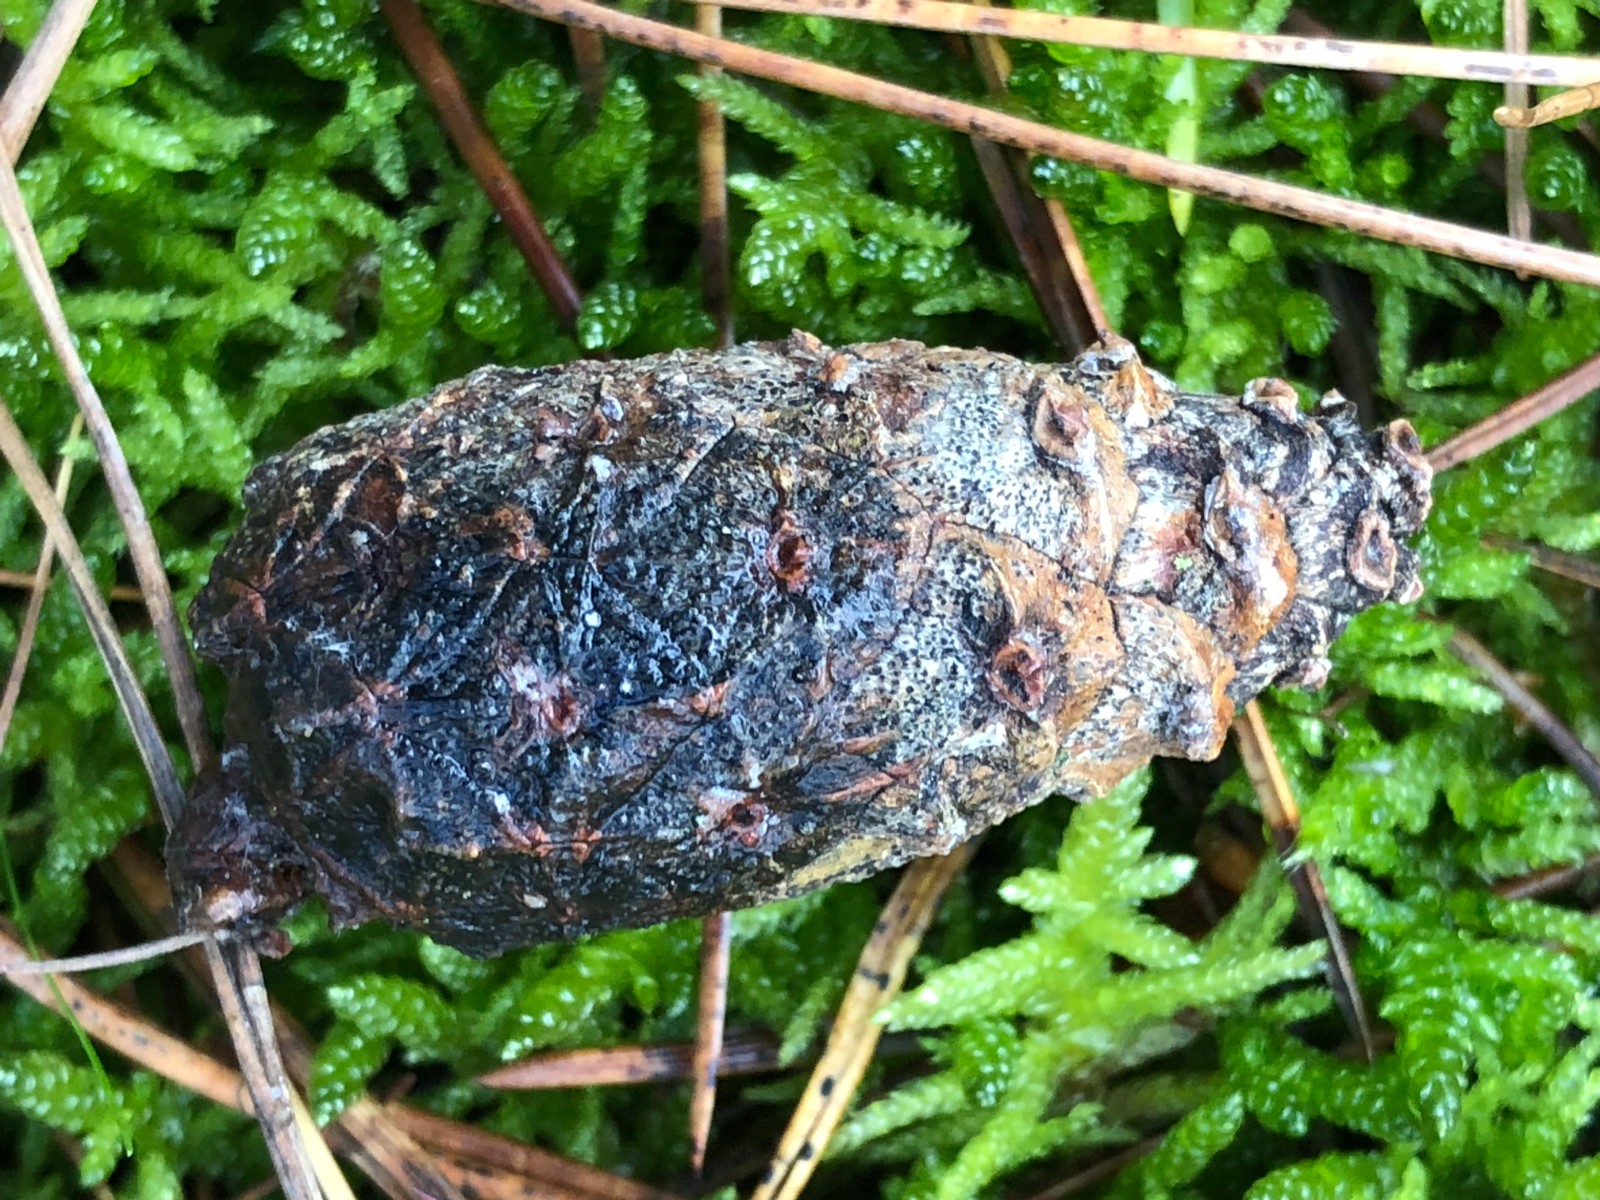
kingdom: Fungi
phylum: Ascomycota
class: Dothideomycetes
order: Botryosphaeriales
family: Botryosphaeriaceae
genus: Sphaeropsis
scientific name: Sphaeropsis sapinea
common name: Sphaeropsis blight
